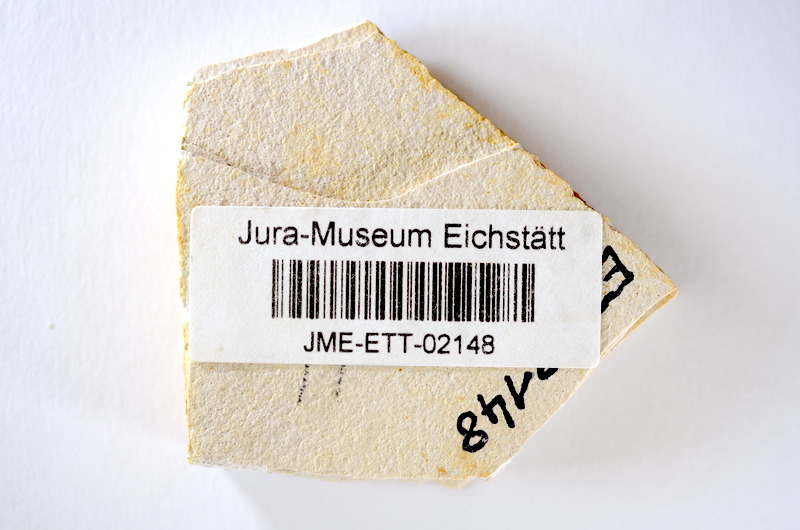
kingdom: Animalia
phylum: Chordata
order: Salmoniformes
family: Orthogonikleithridae
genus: Orthogonikleithrus
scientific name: Orthogonikleithrus hoelli
